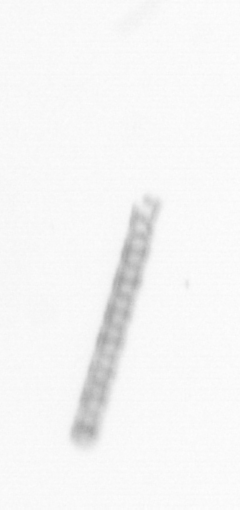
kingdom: Chromista
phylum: Ochrophyta
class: Bacillariophyceae
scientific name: Bacillariophyceae
